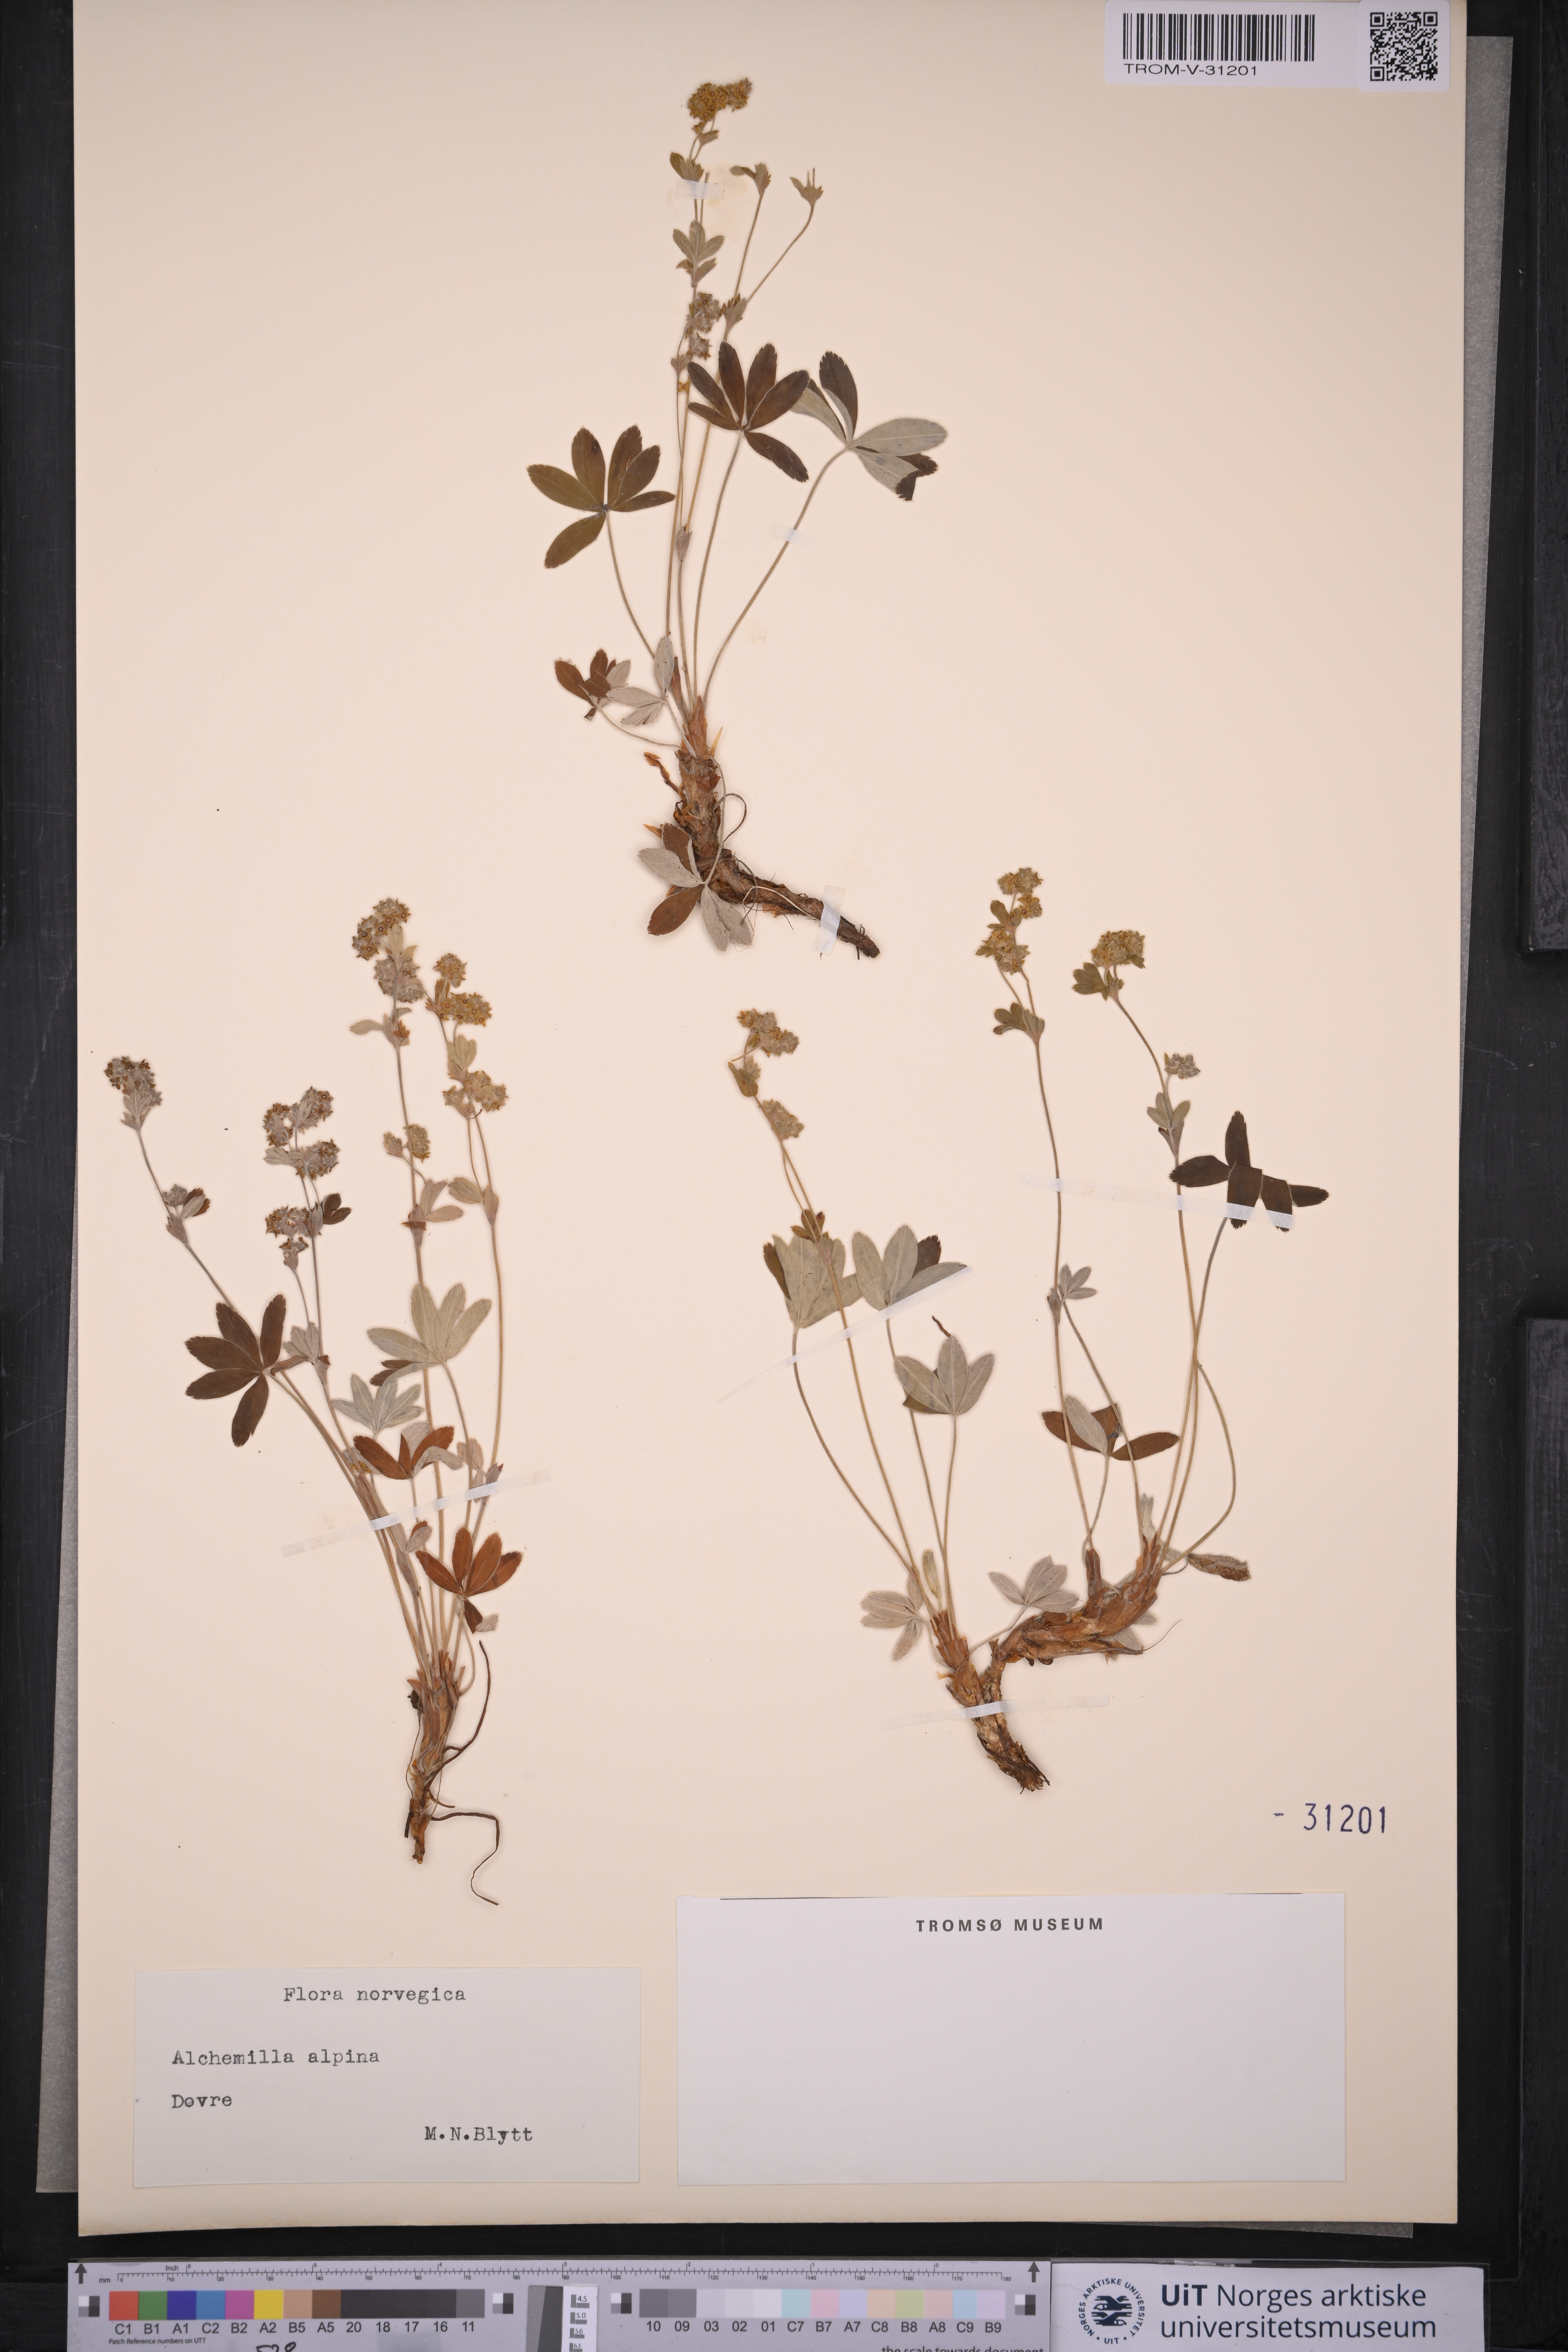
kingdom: Plantae
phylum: Tracheophyta
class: Magnoliopsida
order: Rosales
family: Rosaceae
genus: Alchemilla
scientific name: Alchemilla alpina
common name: Alpine lady's-mantle
